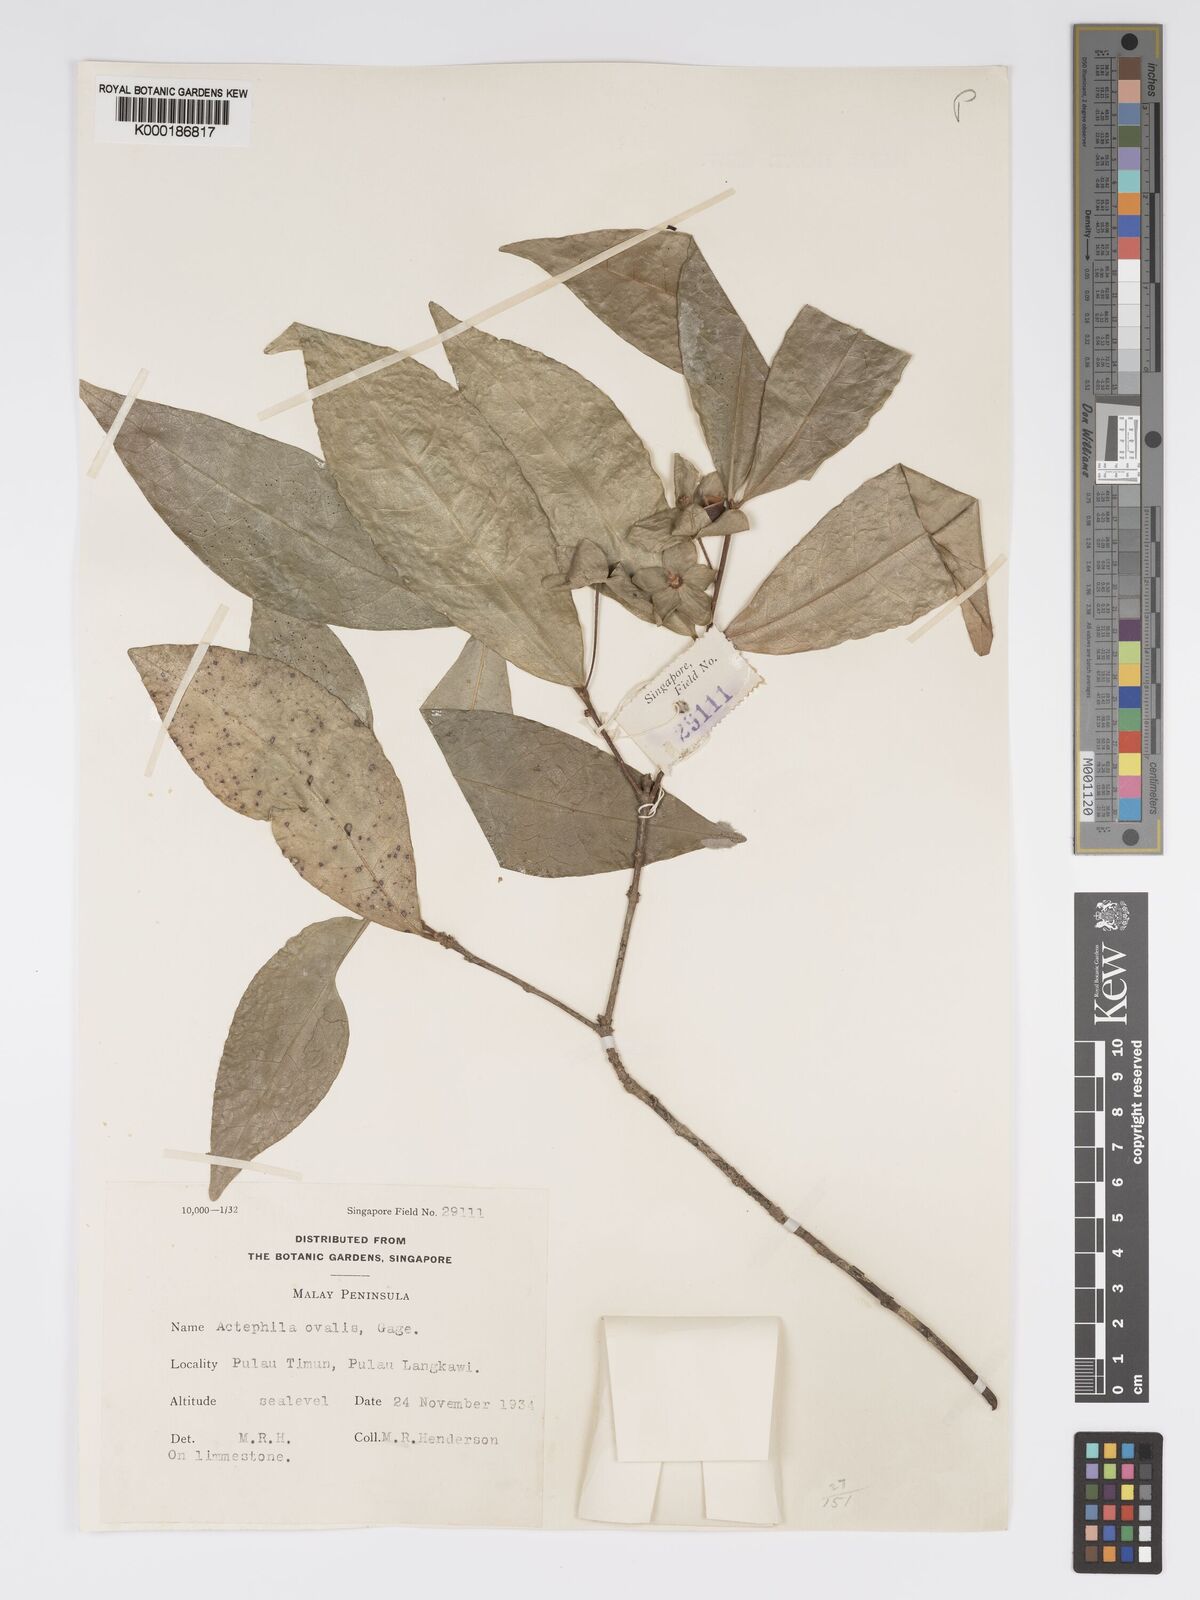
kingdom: Plantae
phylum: Tracheophyta
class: Magnoliopsida
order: Malpighiales
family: Phyllanthaceae
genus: Actephila
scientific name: Actephila ovalis
